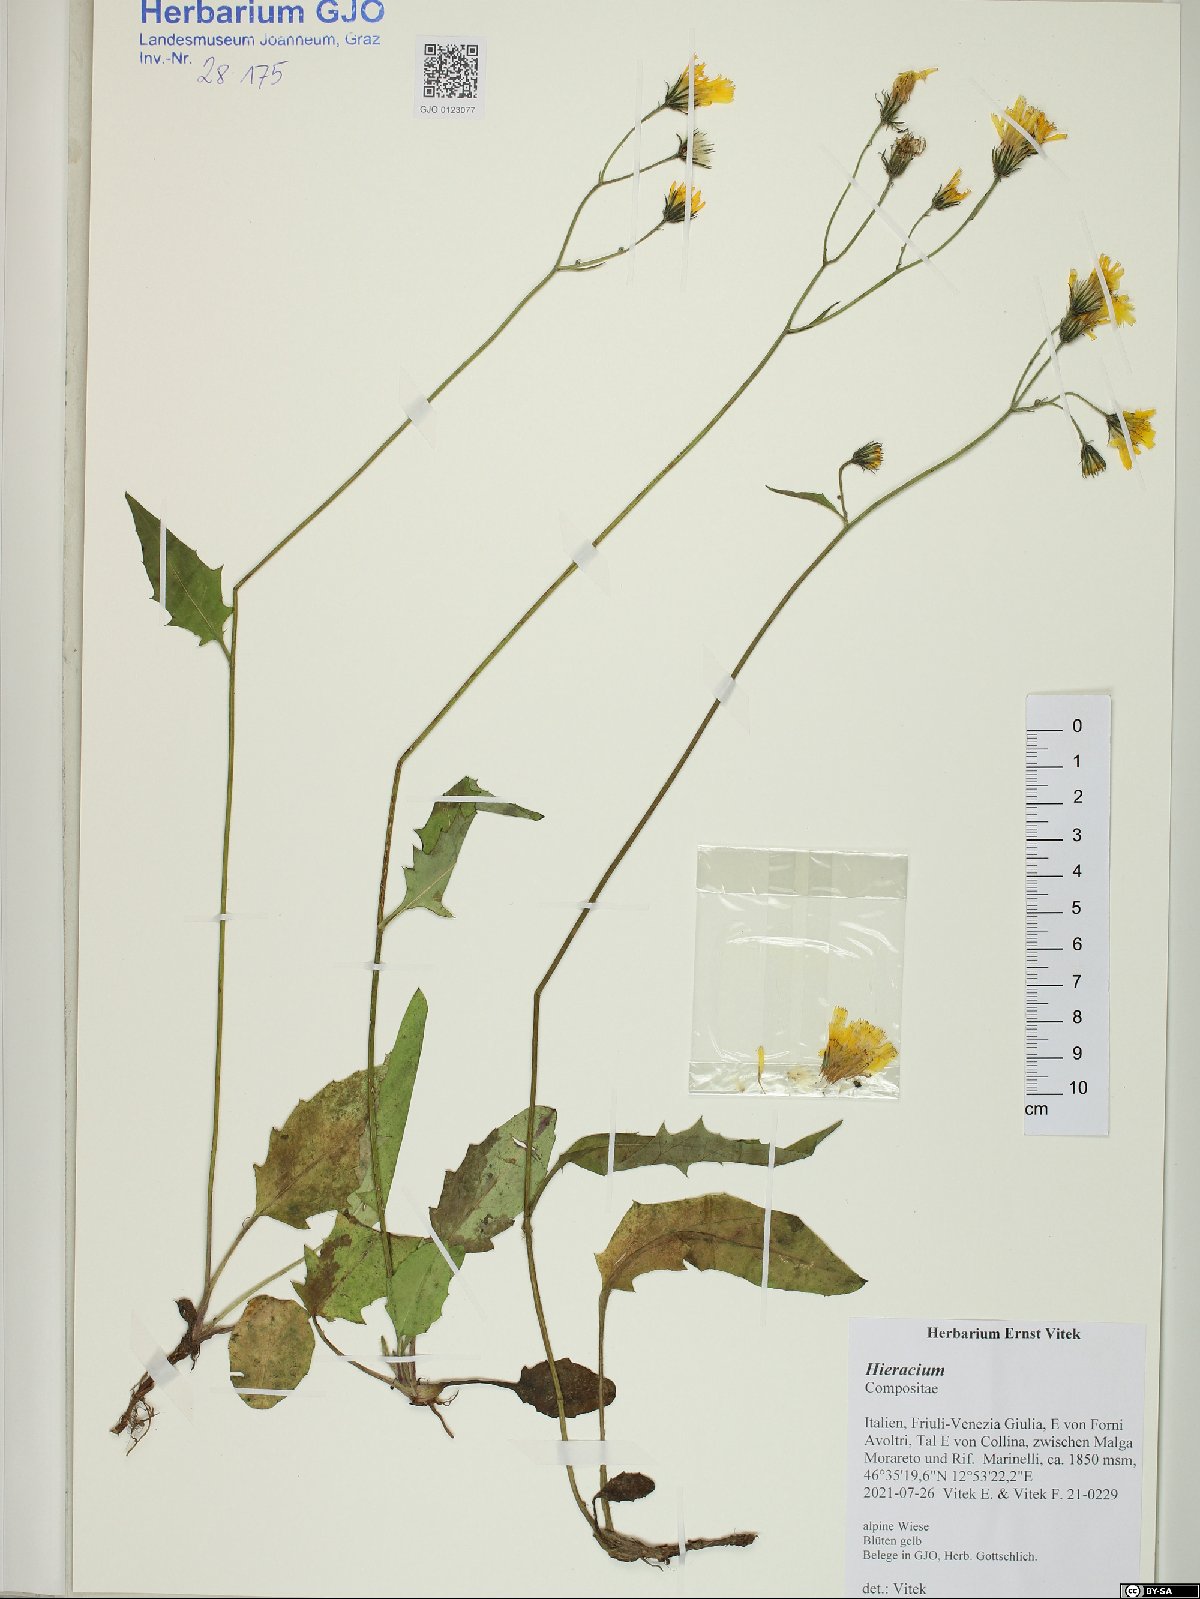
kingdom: Plantae
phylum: Tracheophyta
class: Magnoliopsida
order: Asterales
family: Asteraceae
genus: Hieracium
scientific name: Hieracium
